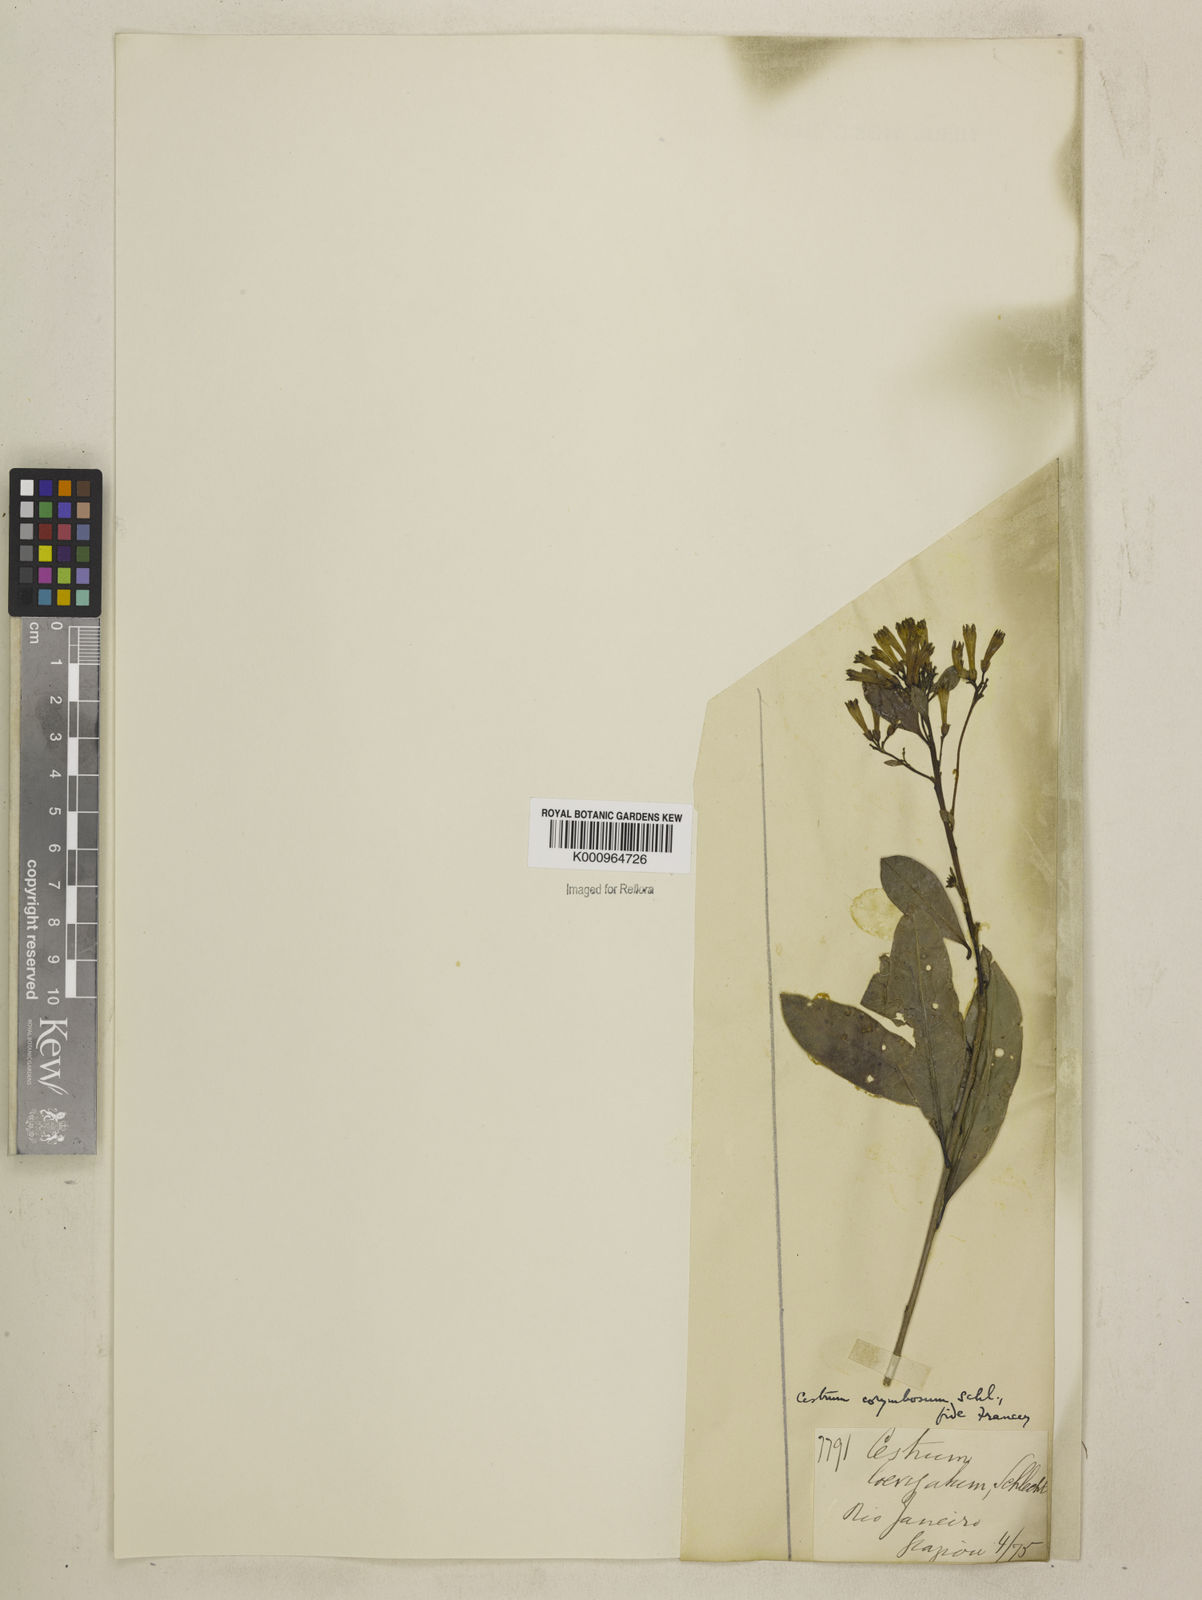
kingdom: Plantae
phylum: Tracheophyta
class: Magnoliopsida
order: Solanales
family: Solanaceae
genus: Cestrum
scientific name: Cestrum corymbosum
